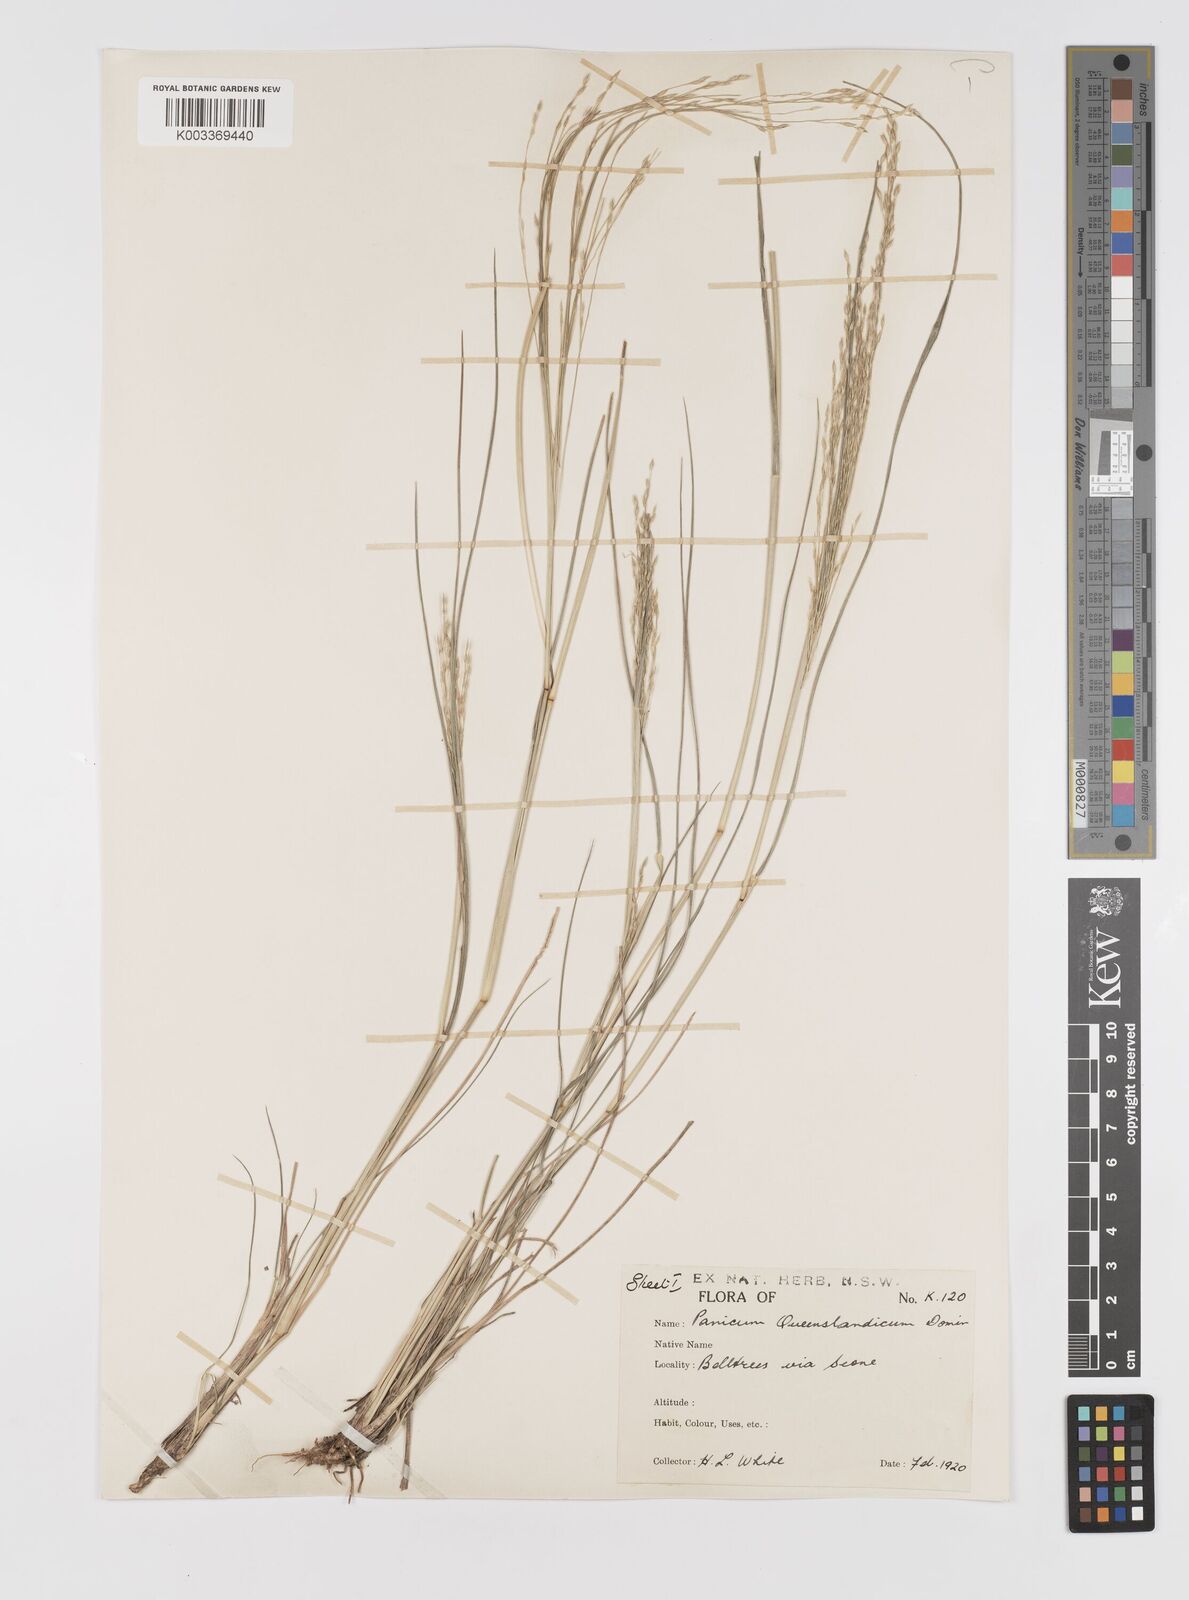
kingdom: Plantae
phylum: Tracheophyta
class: Liliopsida
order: Poales
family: Poaceae
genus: Panicum
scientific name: Panicum queenslandicum
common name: Yabila grass
